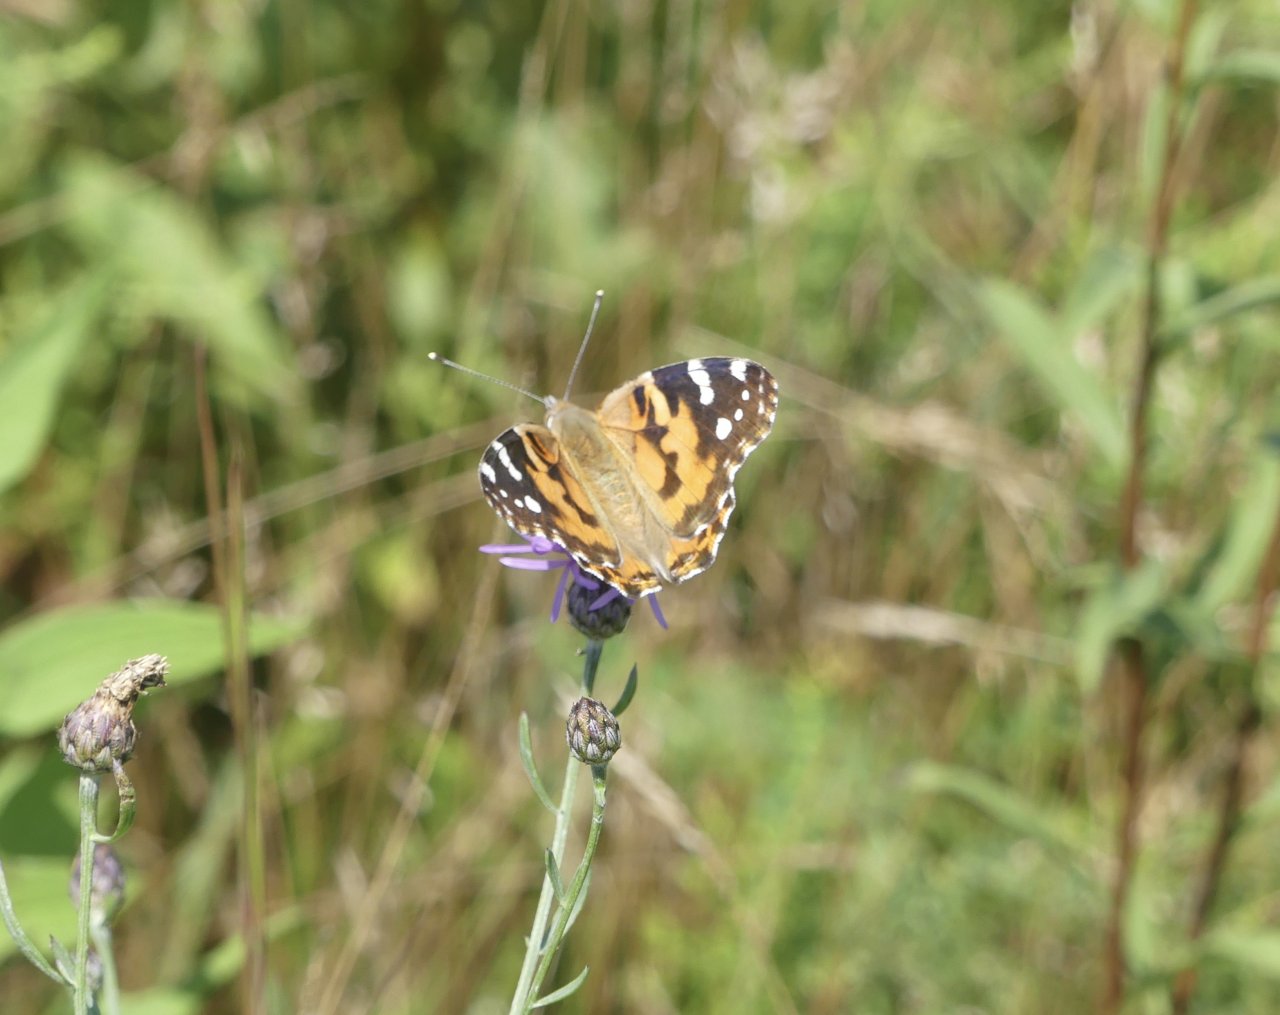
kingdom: Animalia
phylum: Arthropoda
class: Insecta
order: Lepidoptera
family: Nymphalidae
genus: Vanessa
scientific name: Vanessa cardui
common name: Painted Lady
